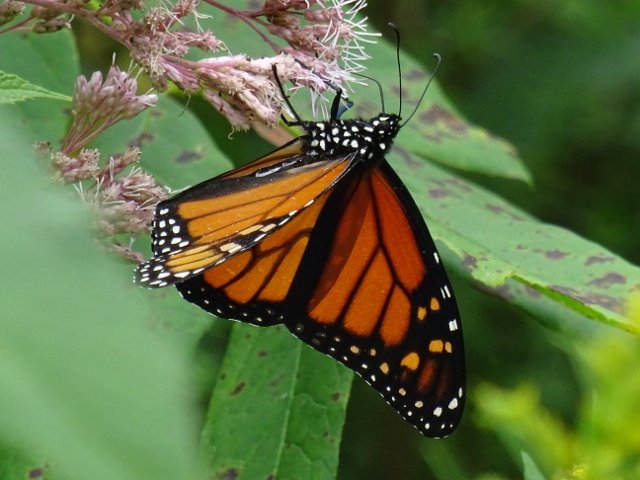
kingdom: Animalia
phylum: Arthropoda
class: Insecta
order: Lepidoptera
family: Nymphalidae
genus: Danaus
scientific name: Danaus plexippus
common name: Monarch
